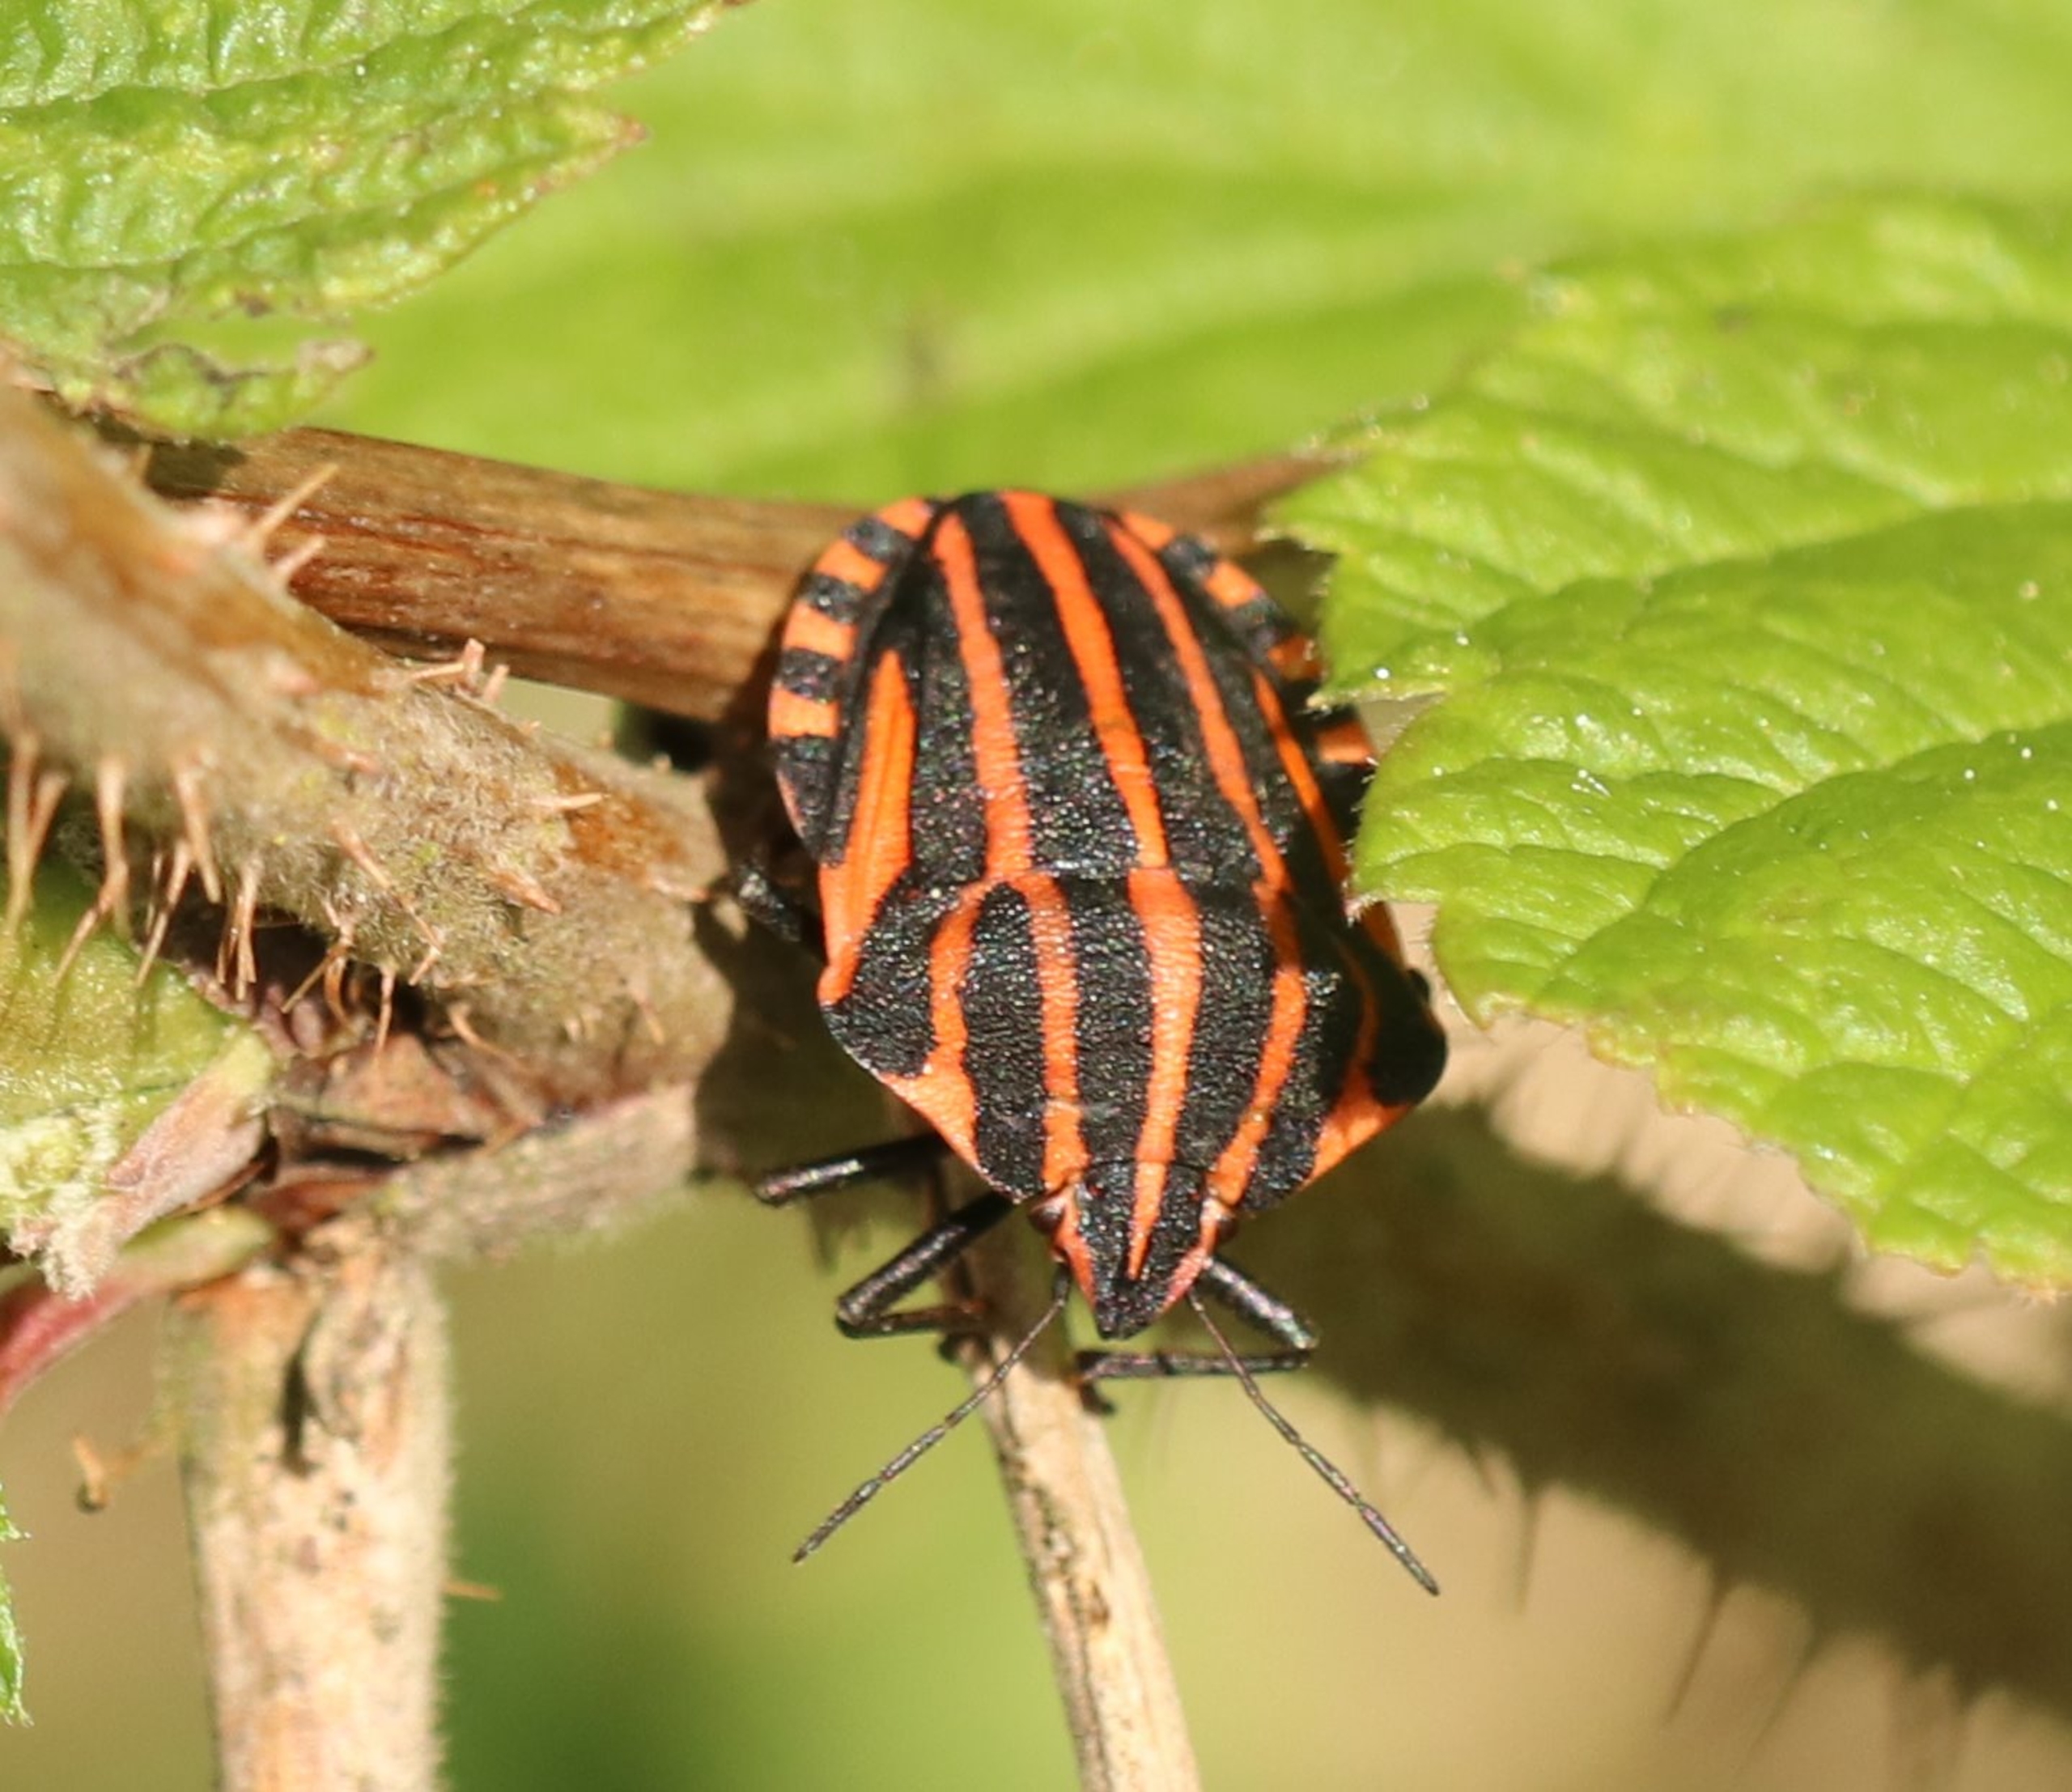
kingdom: Animalia
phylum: Arthropoda
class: Insecta
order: Hemiptera
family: Pentatomidae
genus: Graphosoma
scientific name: Graphosoma italicum
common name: Stribetæge
